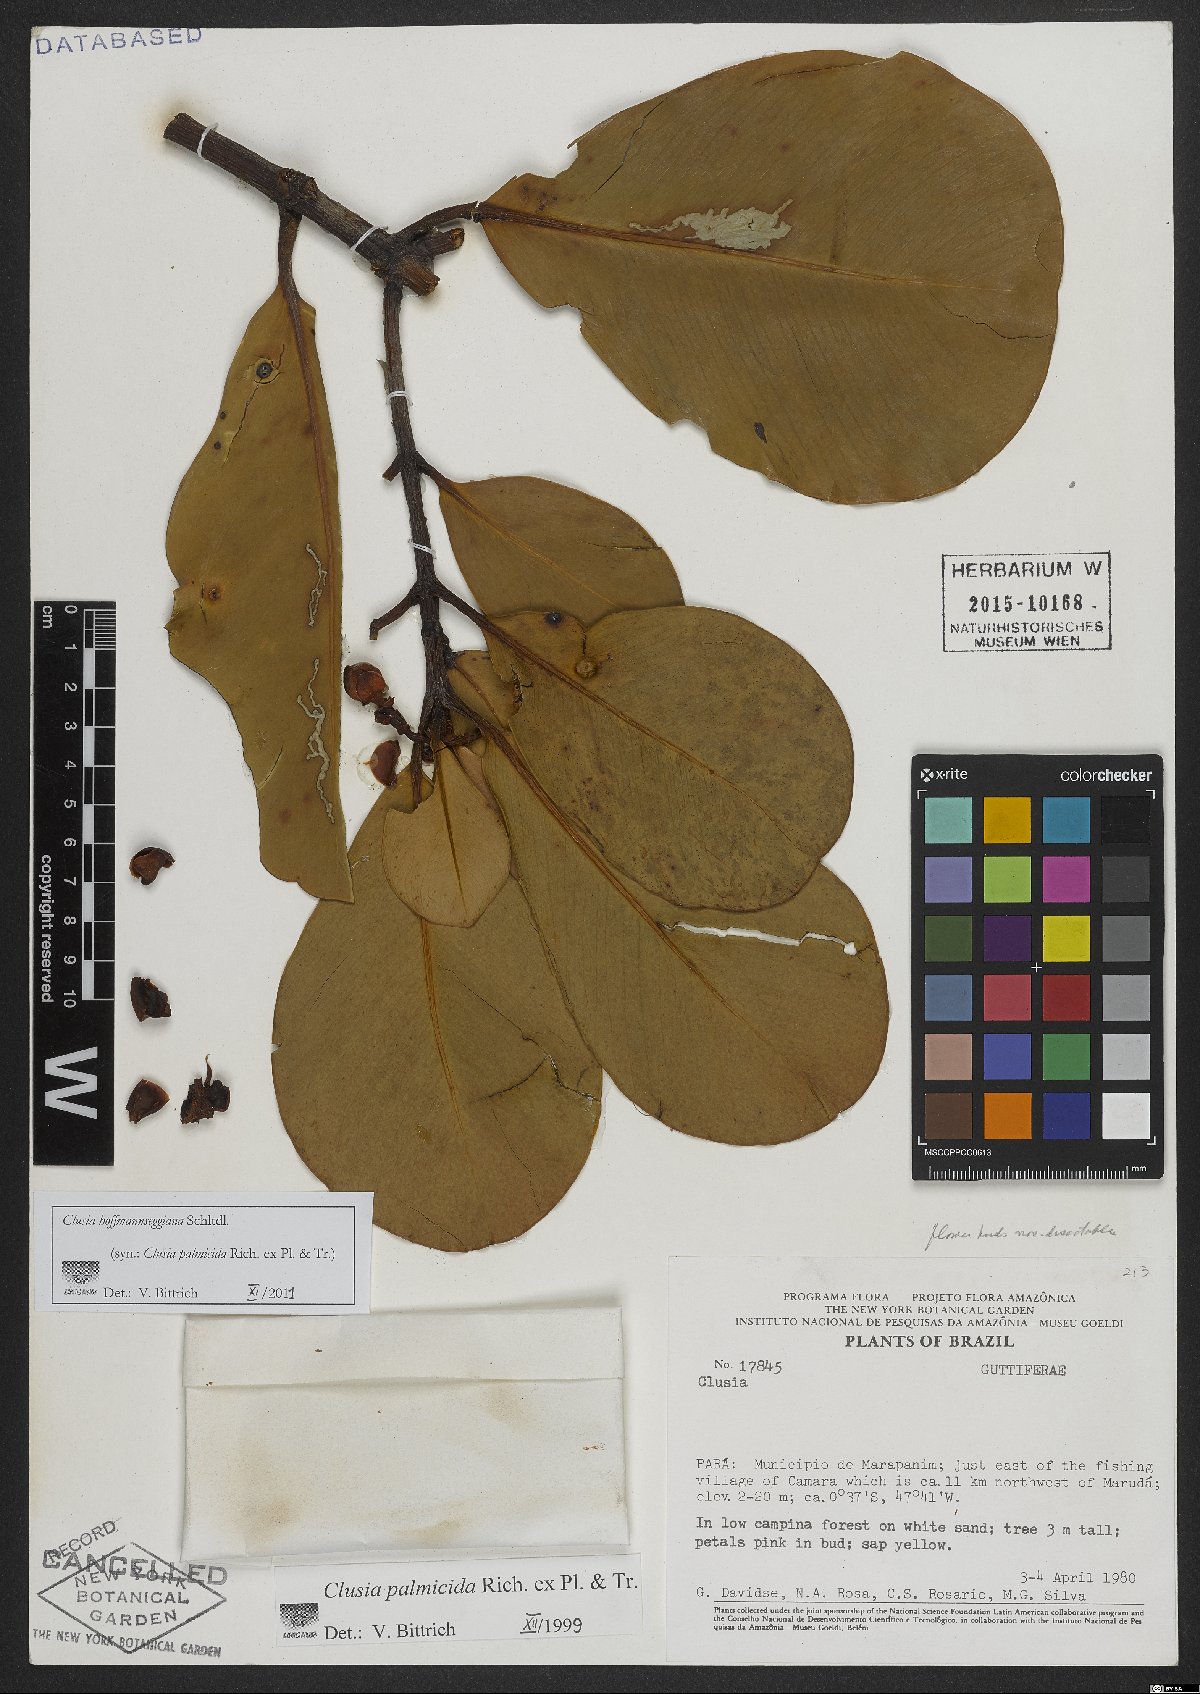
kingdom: Plantae
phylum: Tracheophyta
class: Magnoliopsida
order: Malpighiales
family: Clusiaceae
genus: Clusia
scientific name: Clusia palmicida
